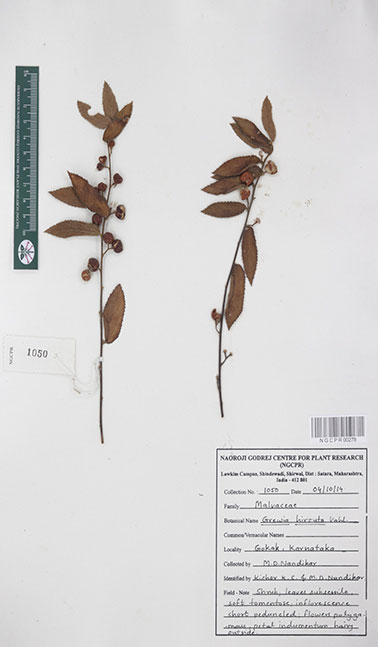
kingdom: Plantae
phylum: Tracheophyta
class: Magnoliopsida
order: Malvales
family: Malvaceae
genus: Grewia
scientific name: Grewia hirsuta
